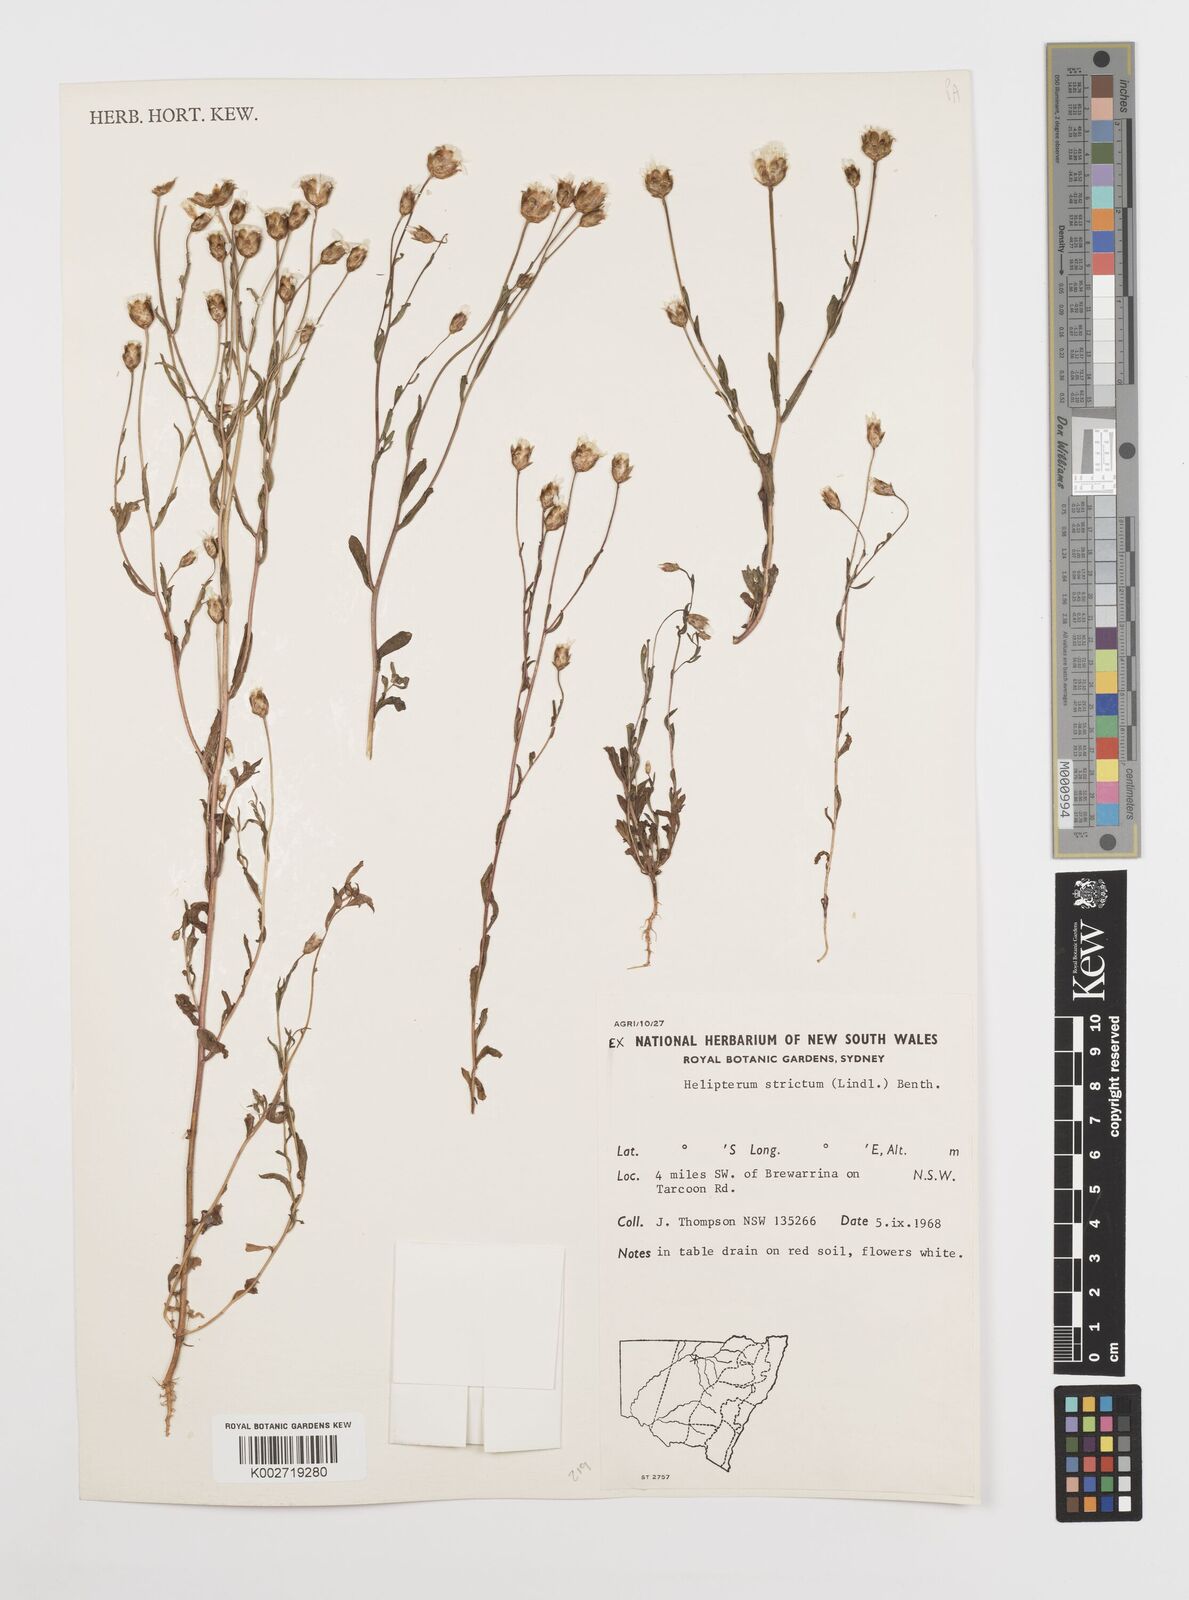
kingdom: Plantae
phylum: Tracheophyta
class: Magnoliopsida
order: Asterales
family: Asteraceae
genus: Rhodanthe
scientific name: Rhodanthe stricta
